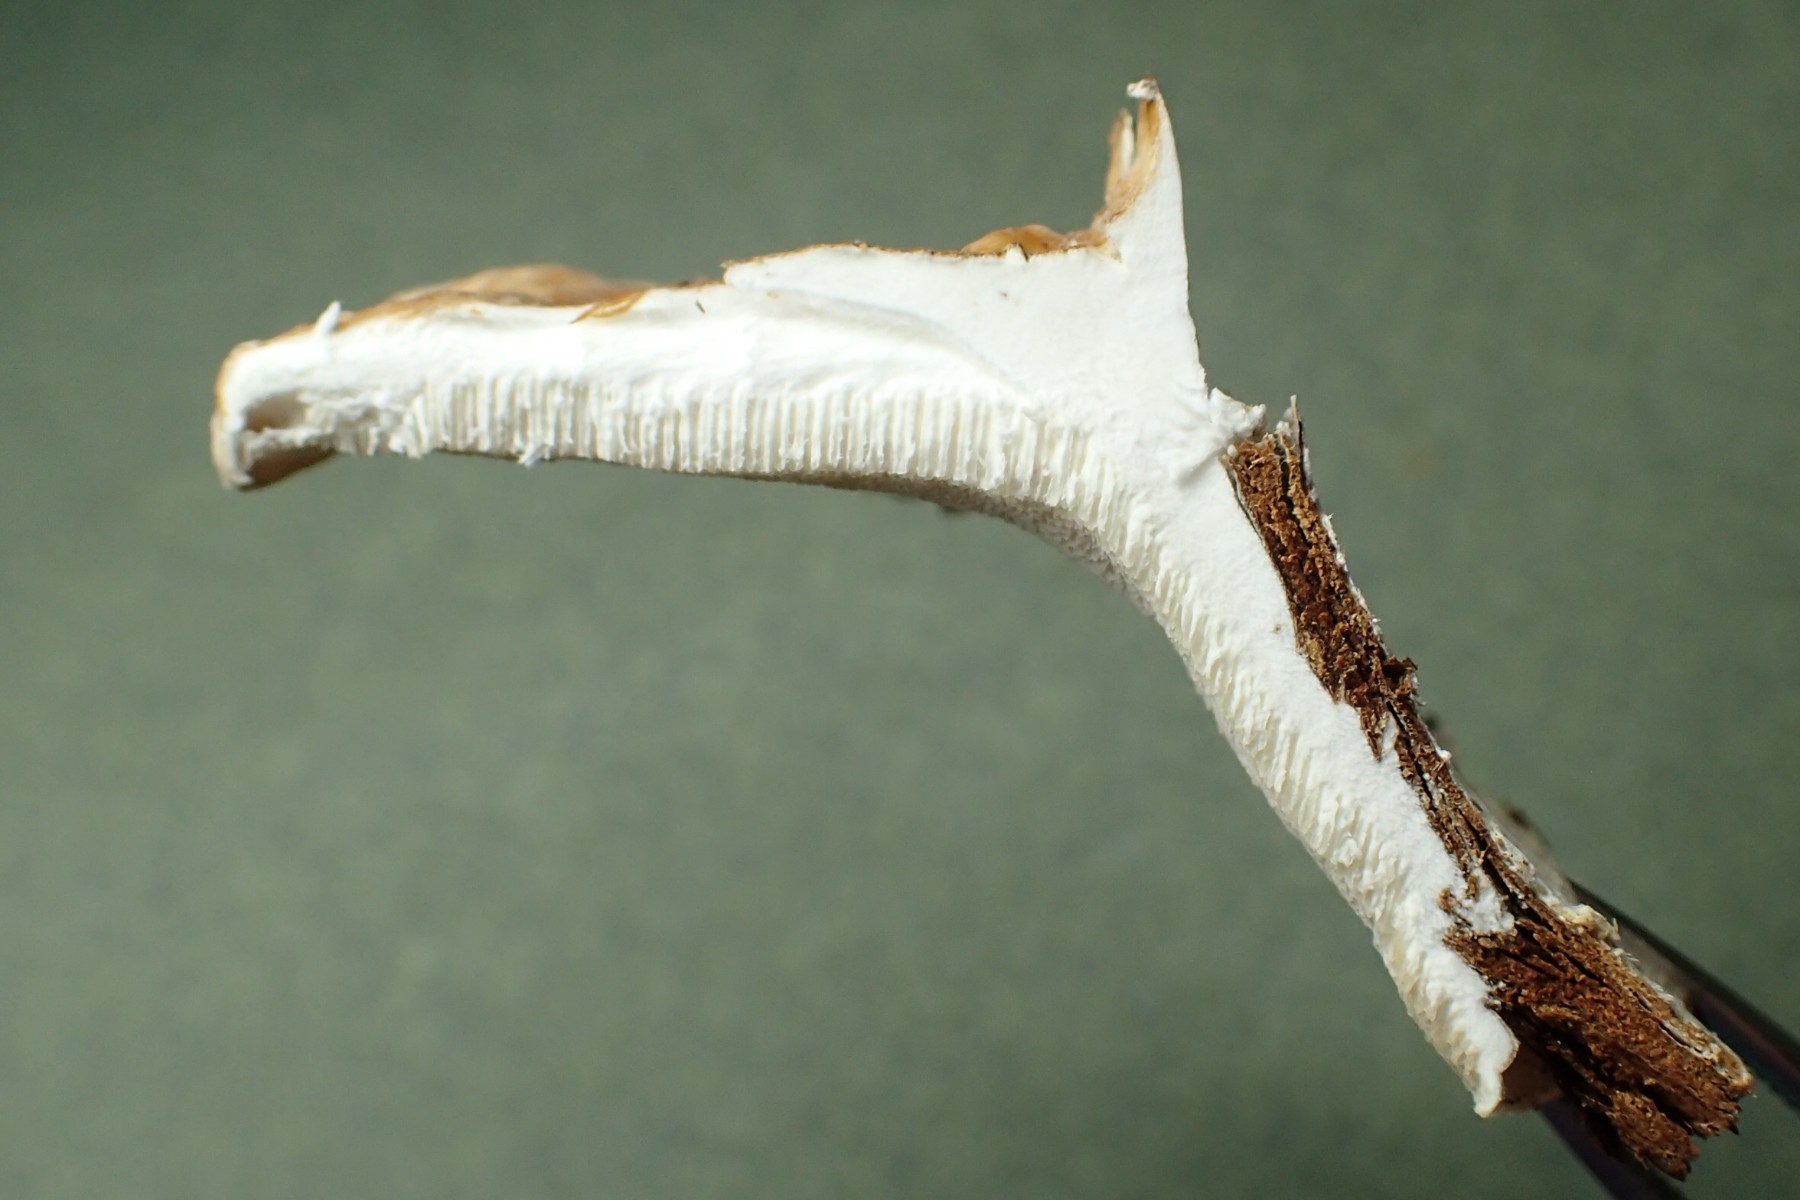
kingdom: Fungi
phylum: Basidiomycota
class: Agaricomycetes
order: Polyporales
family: Polyporaceae
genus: Trametes
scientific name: Trametes ochracea
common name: bæltet læderporesvamp
